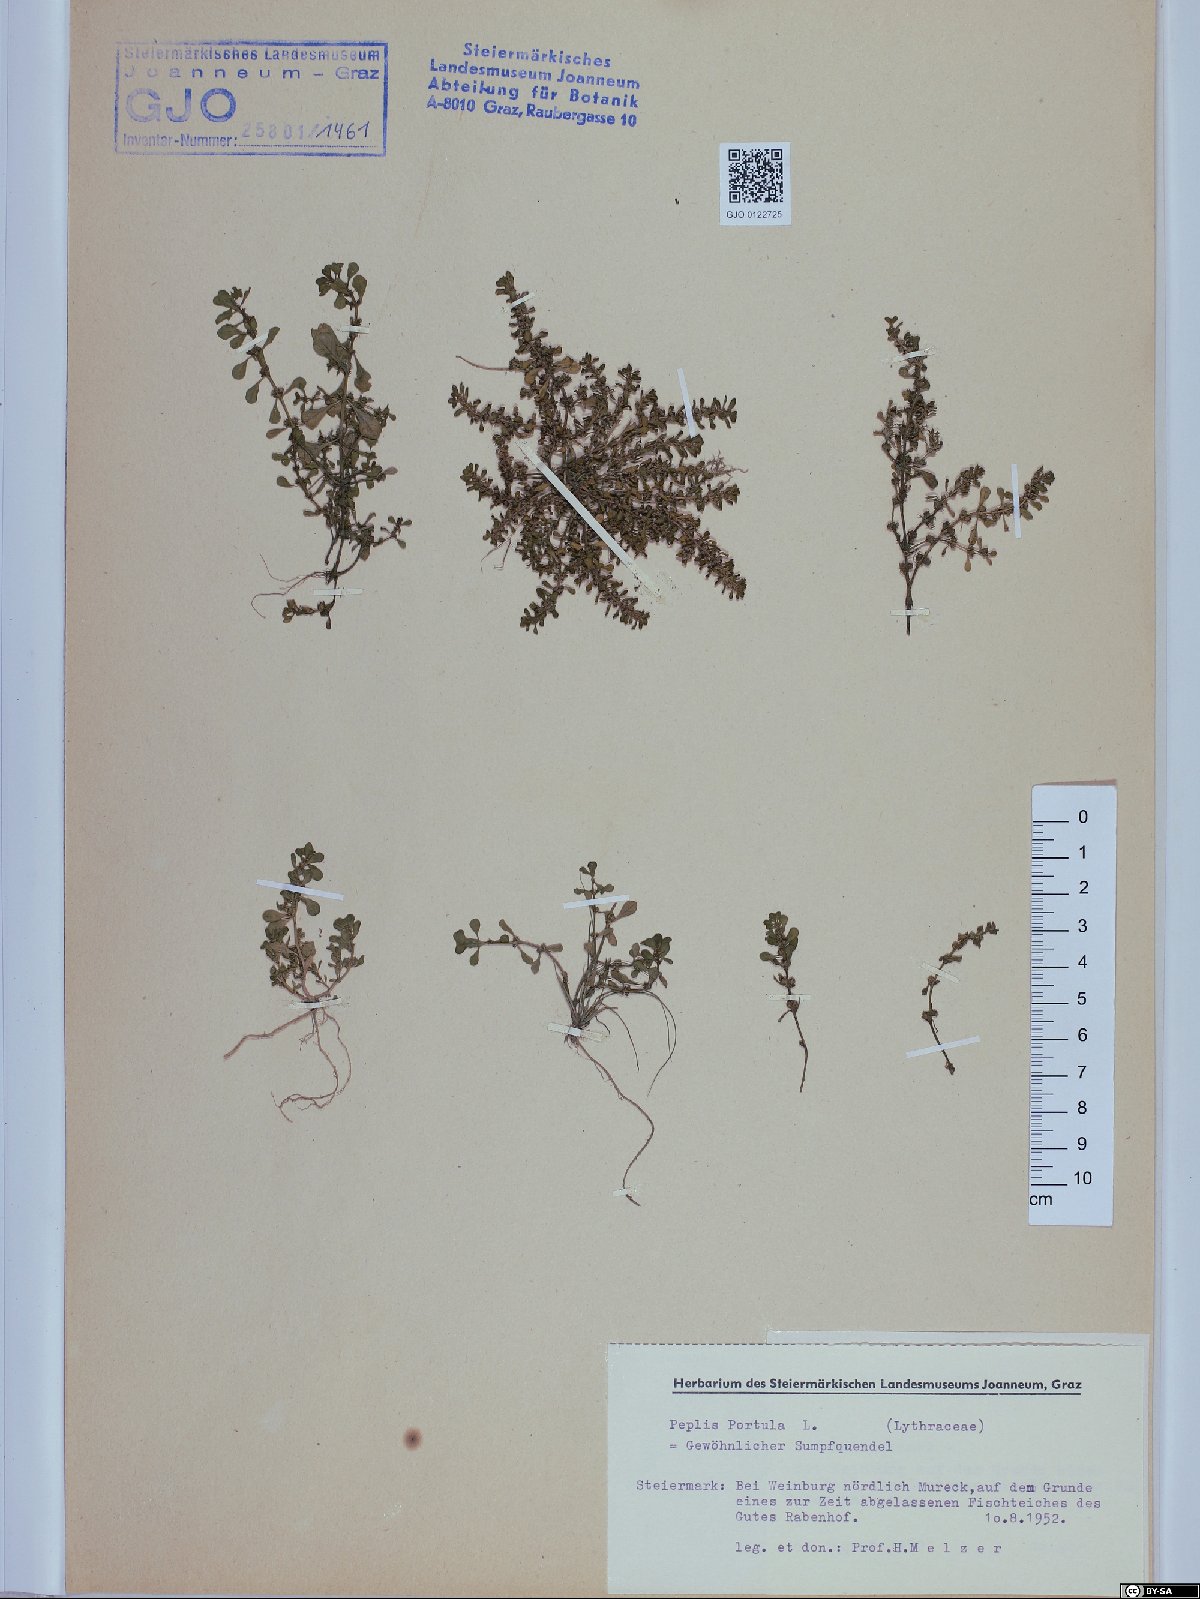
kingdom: Plantae
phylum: Tracheophyta
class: Magnoliopsida
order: Myrtales
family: Lythraceae
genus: Lythrum
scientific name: Lythrum portula
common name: Water purslane
